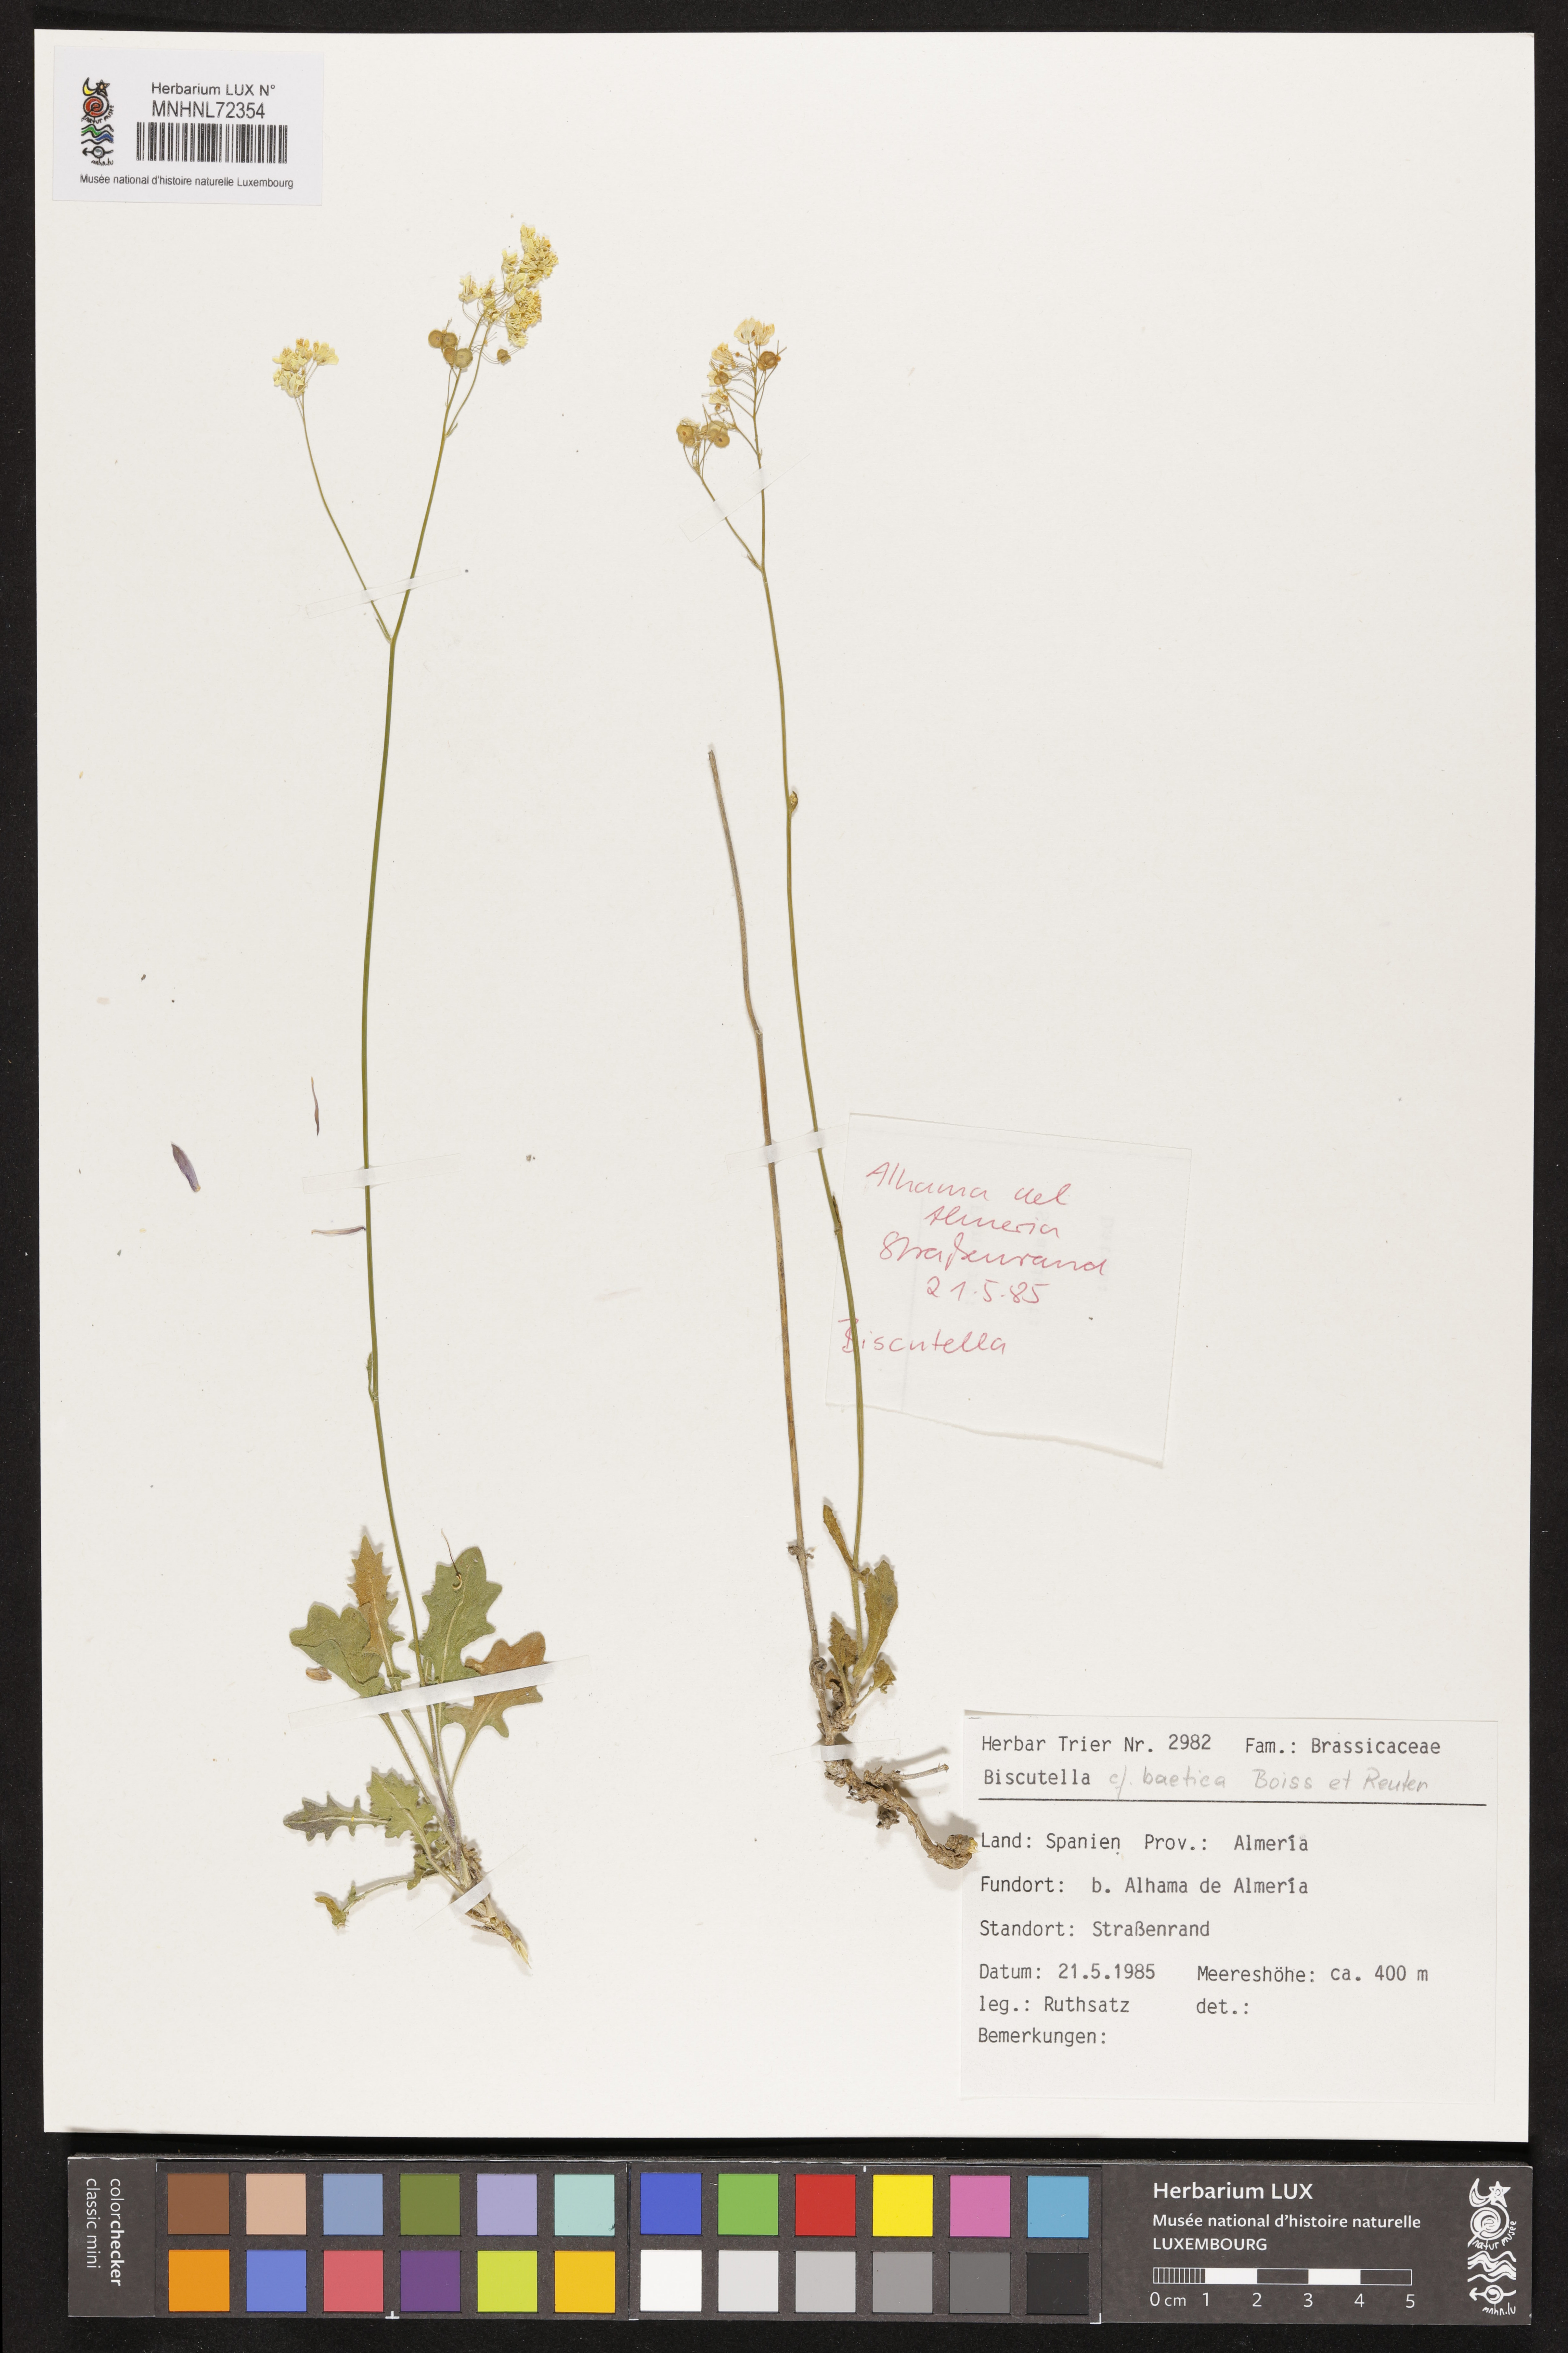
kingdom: Plantae
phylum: Tracheophyta
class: Magnoliopsida
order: Brassicales
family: Brassicaceae
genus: Biscutella
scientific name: Biscutella boetica
